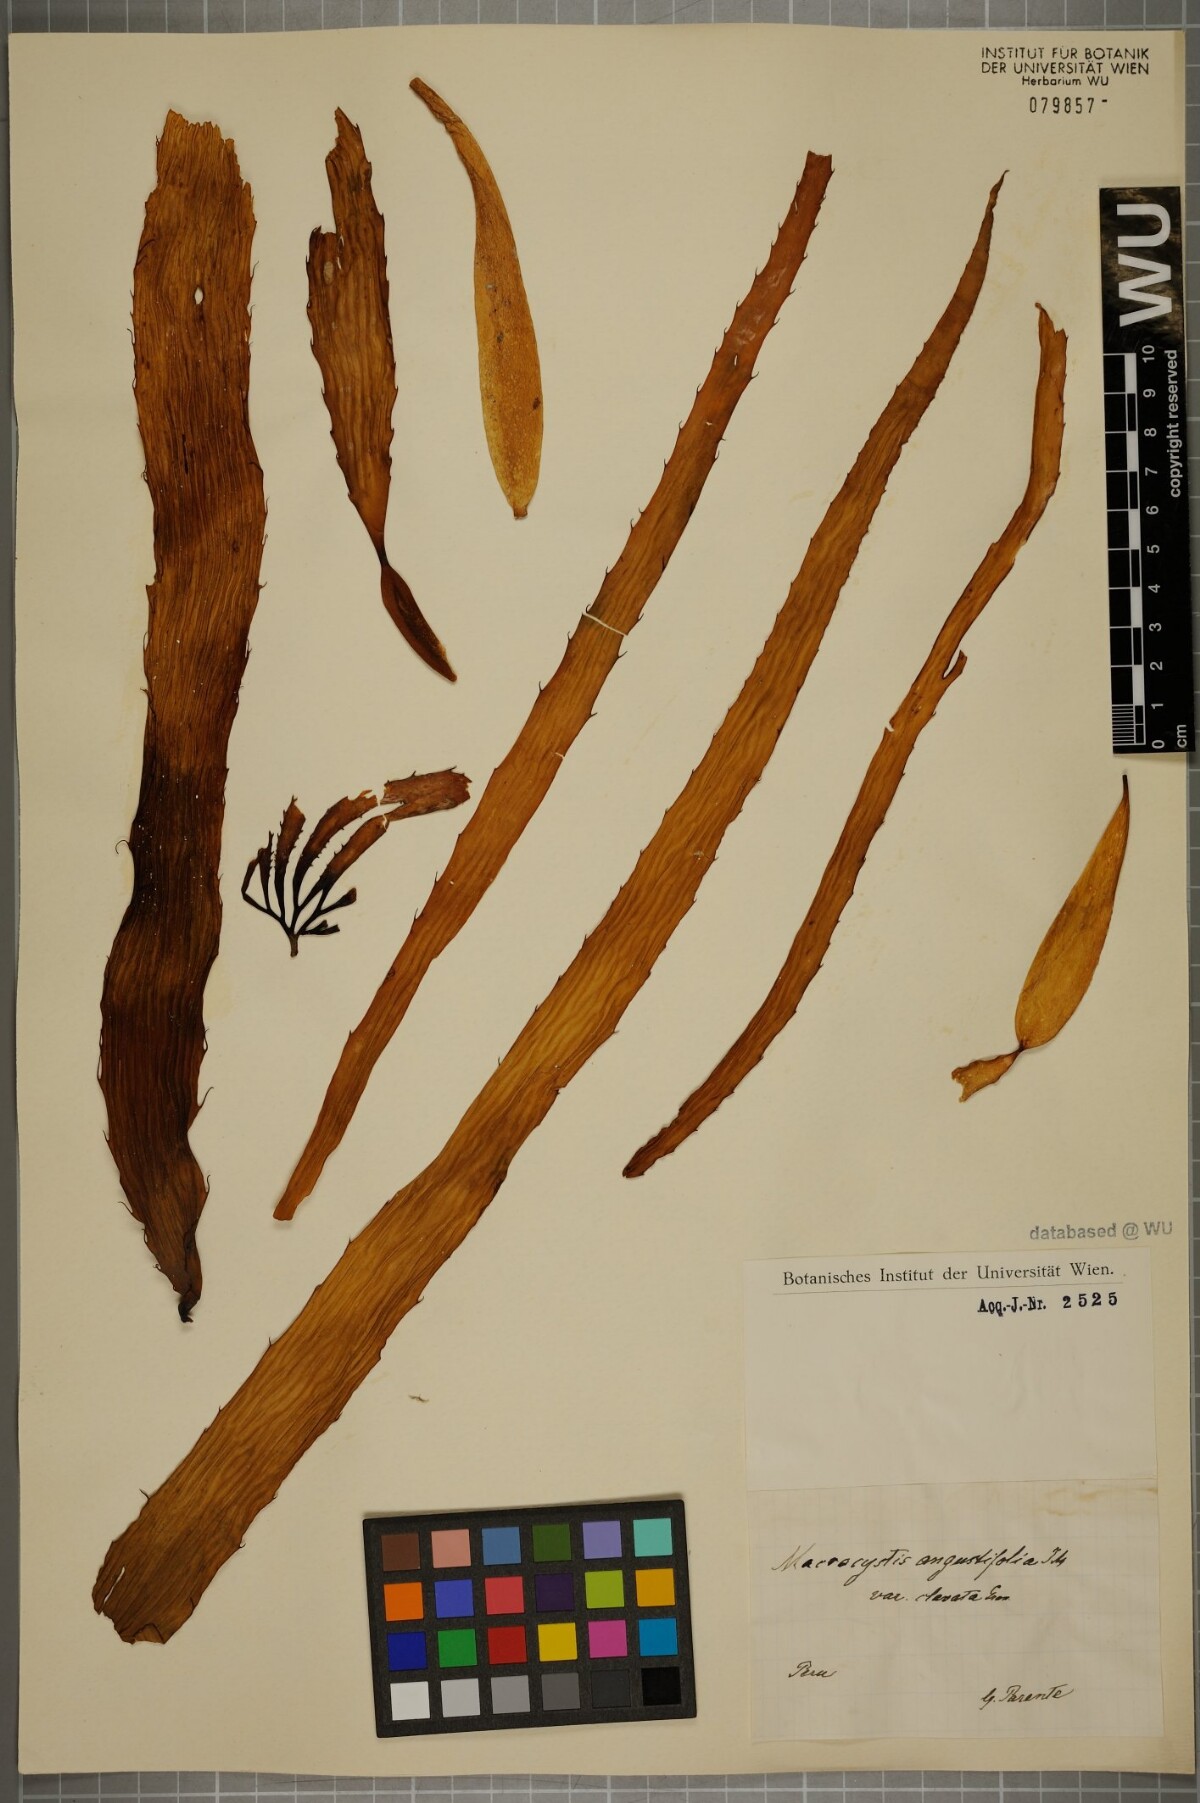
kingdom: Chromista
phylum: Ochrophyta
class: Phaeophyceae
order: Laminariales
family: Laminariaceae
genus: Macrocystis
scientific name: Macrocystis angustifolia
